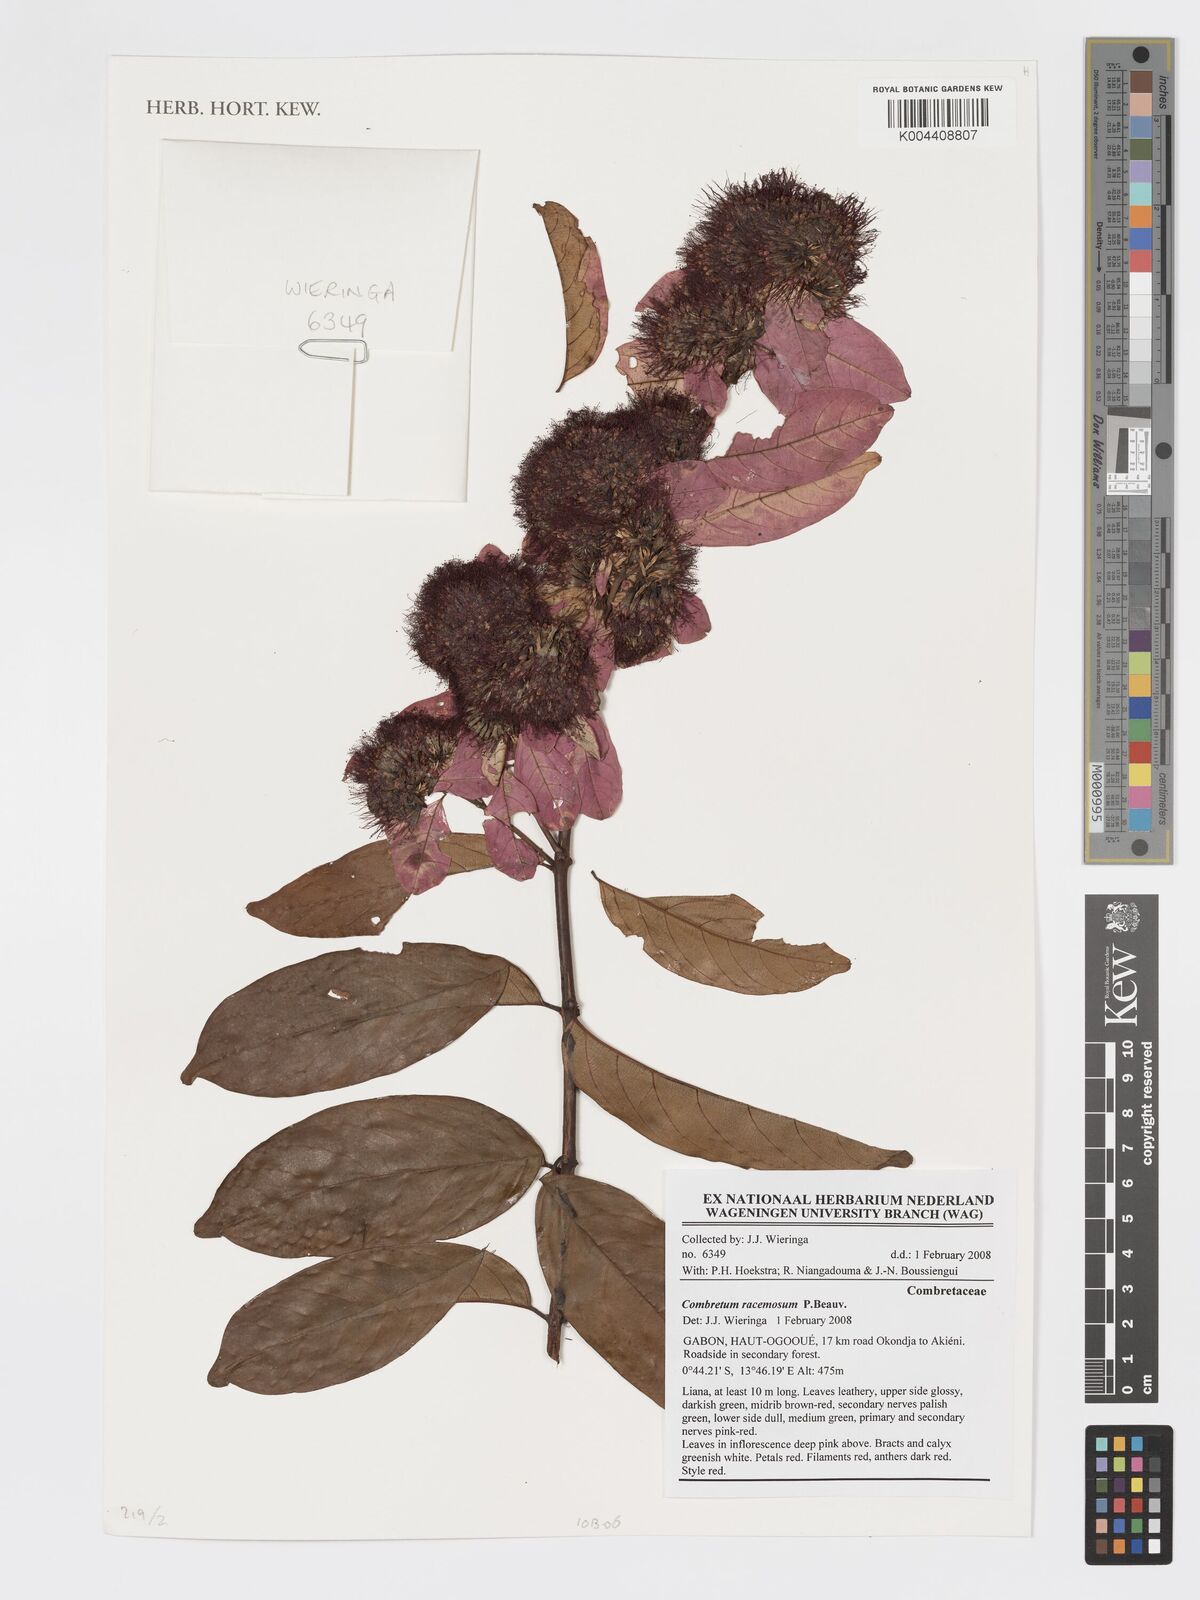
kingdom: Plantae
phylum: Tracheophyta
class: Magnoliopsida
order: Myrtales
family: Combretaceae
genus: Combretum
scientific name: Combretum racemosum
